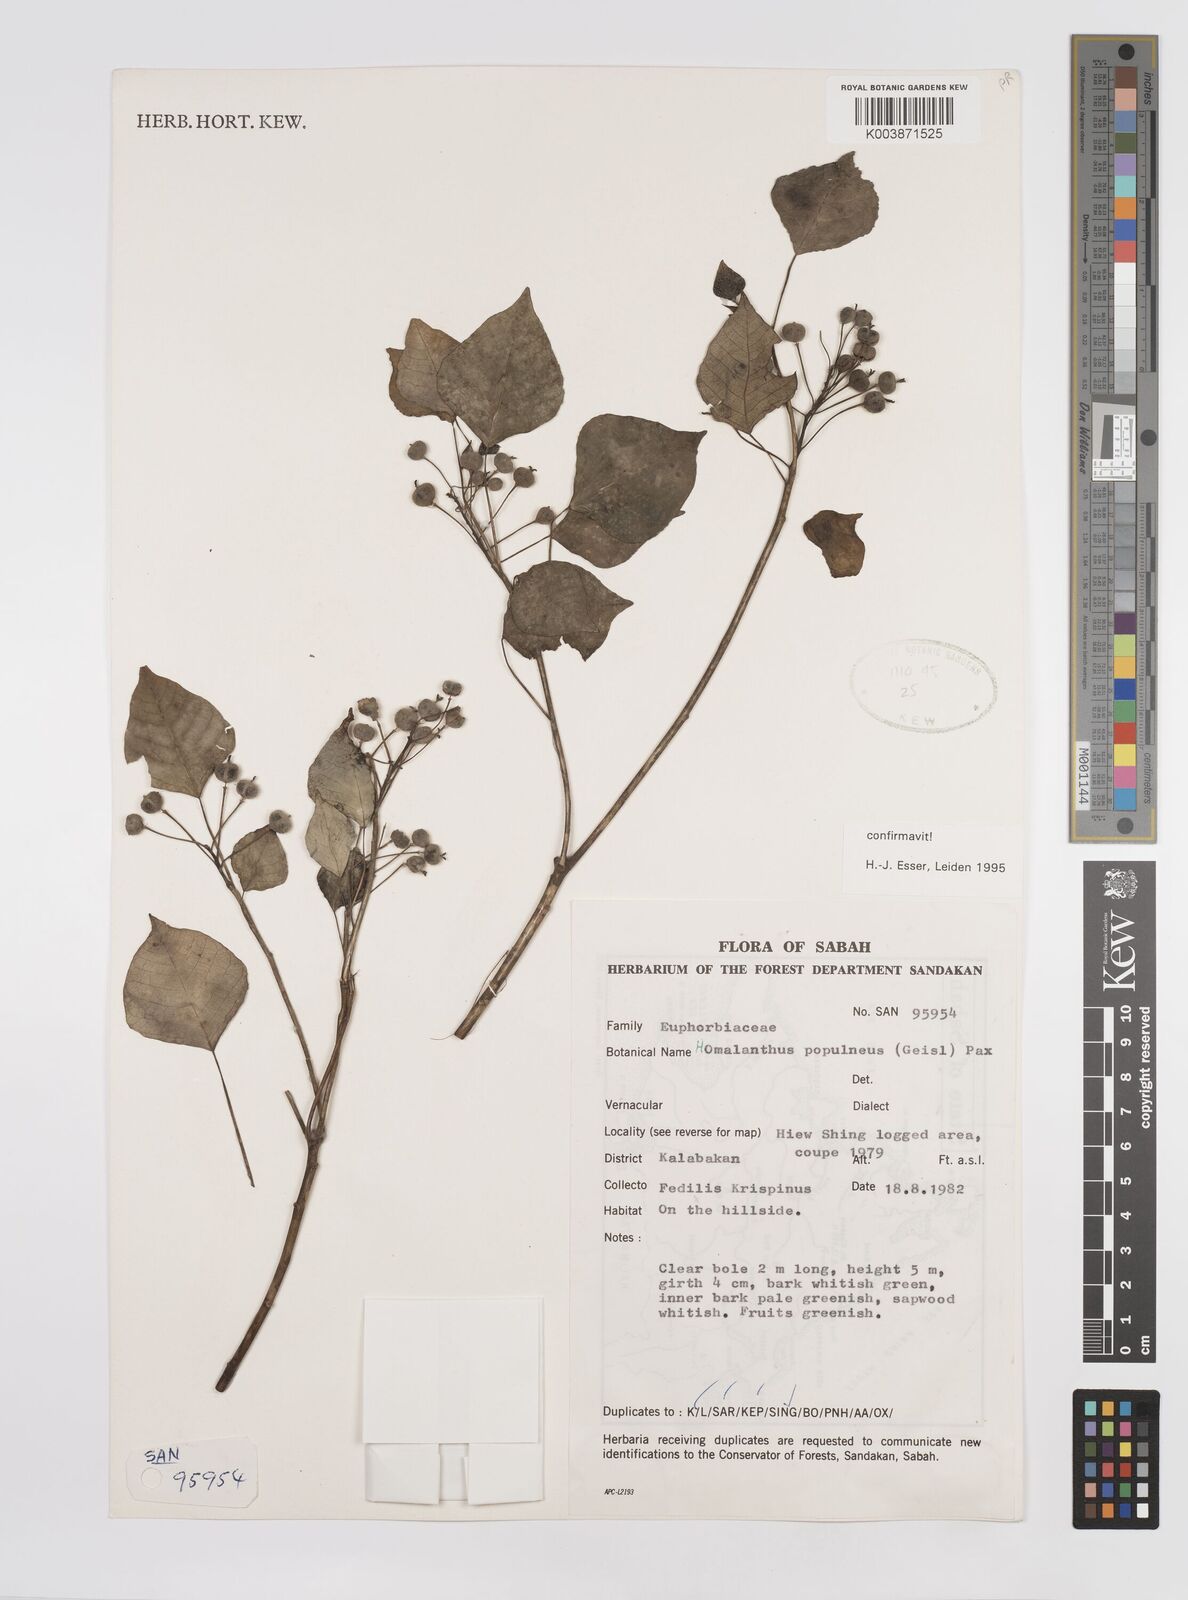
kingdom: Plantae
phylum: Tracheophyta
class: Magnoliopsida
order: Malpighiales
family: Euphorbiaceae
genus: Homalanthus
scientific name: Homalanthus populneus
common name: Spurge
